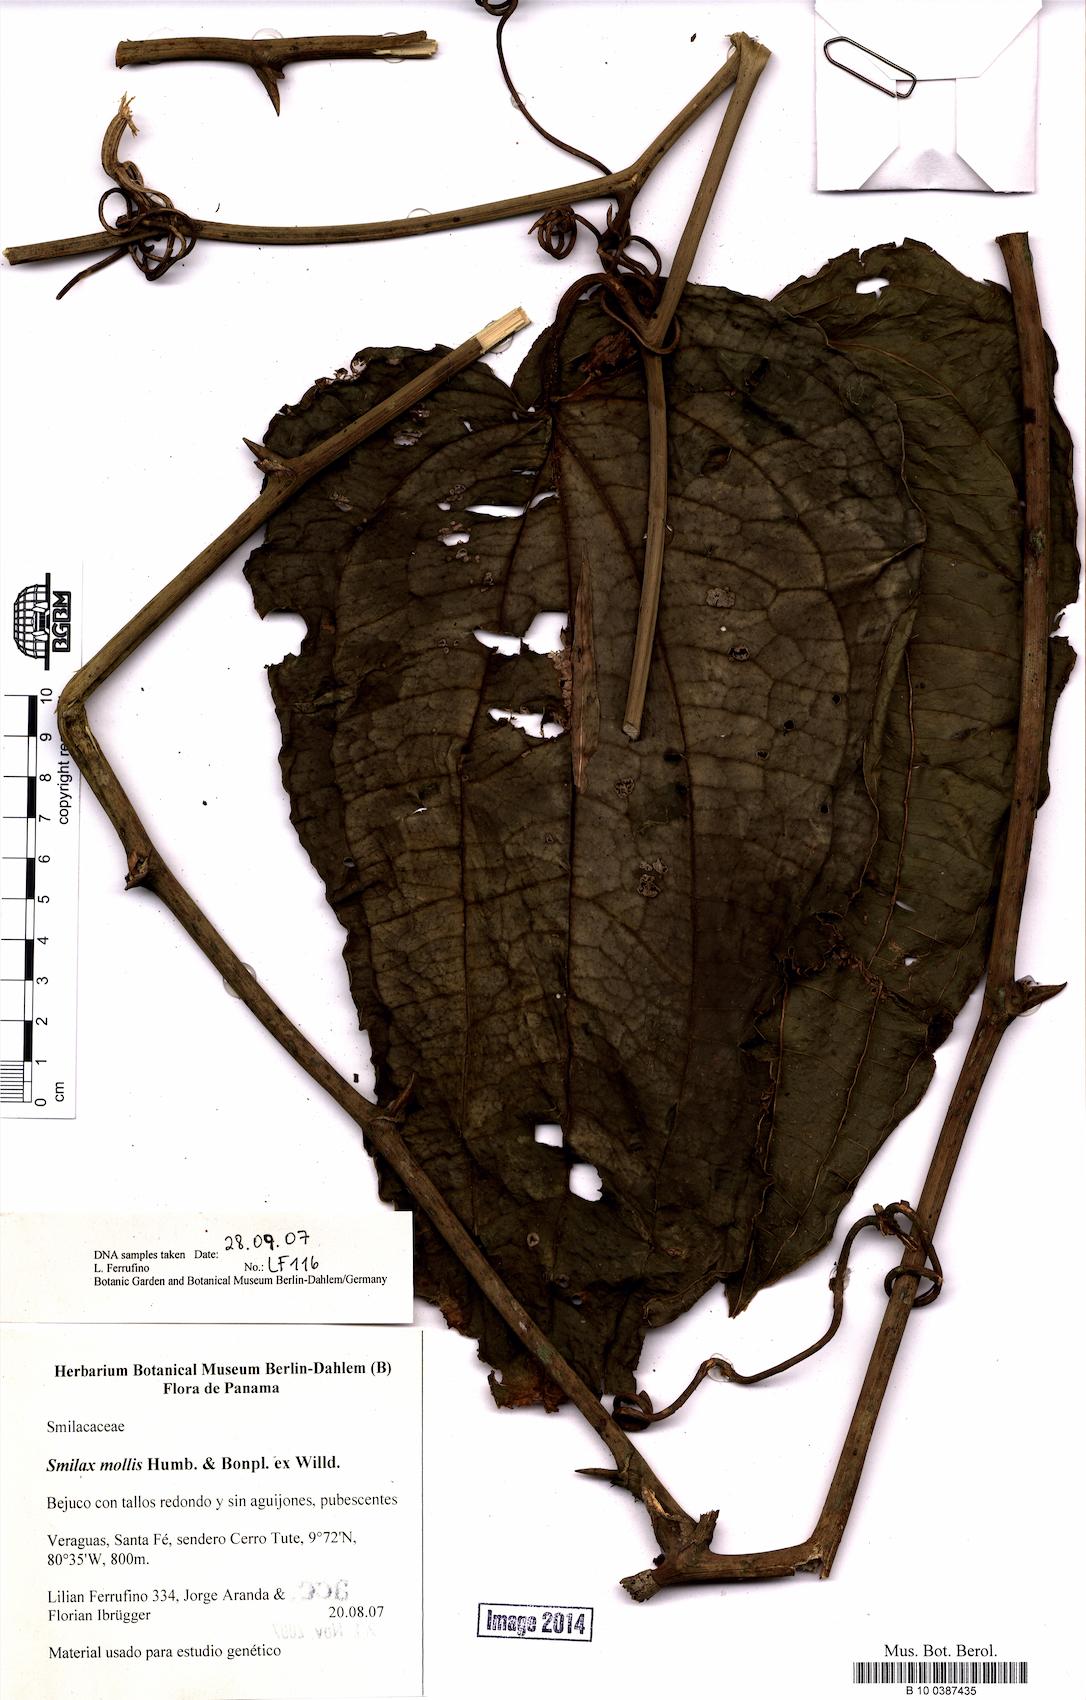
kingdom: Plantae
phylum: Tracheophyta
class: Liliopsida
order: Liliales
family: Smilacaceae
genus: Smilax
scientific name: Smilax mollis
